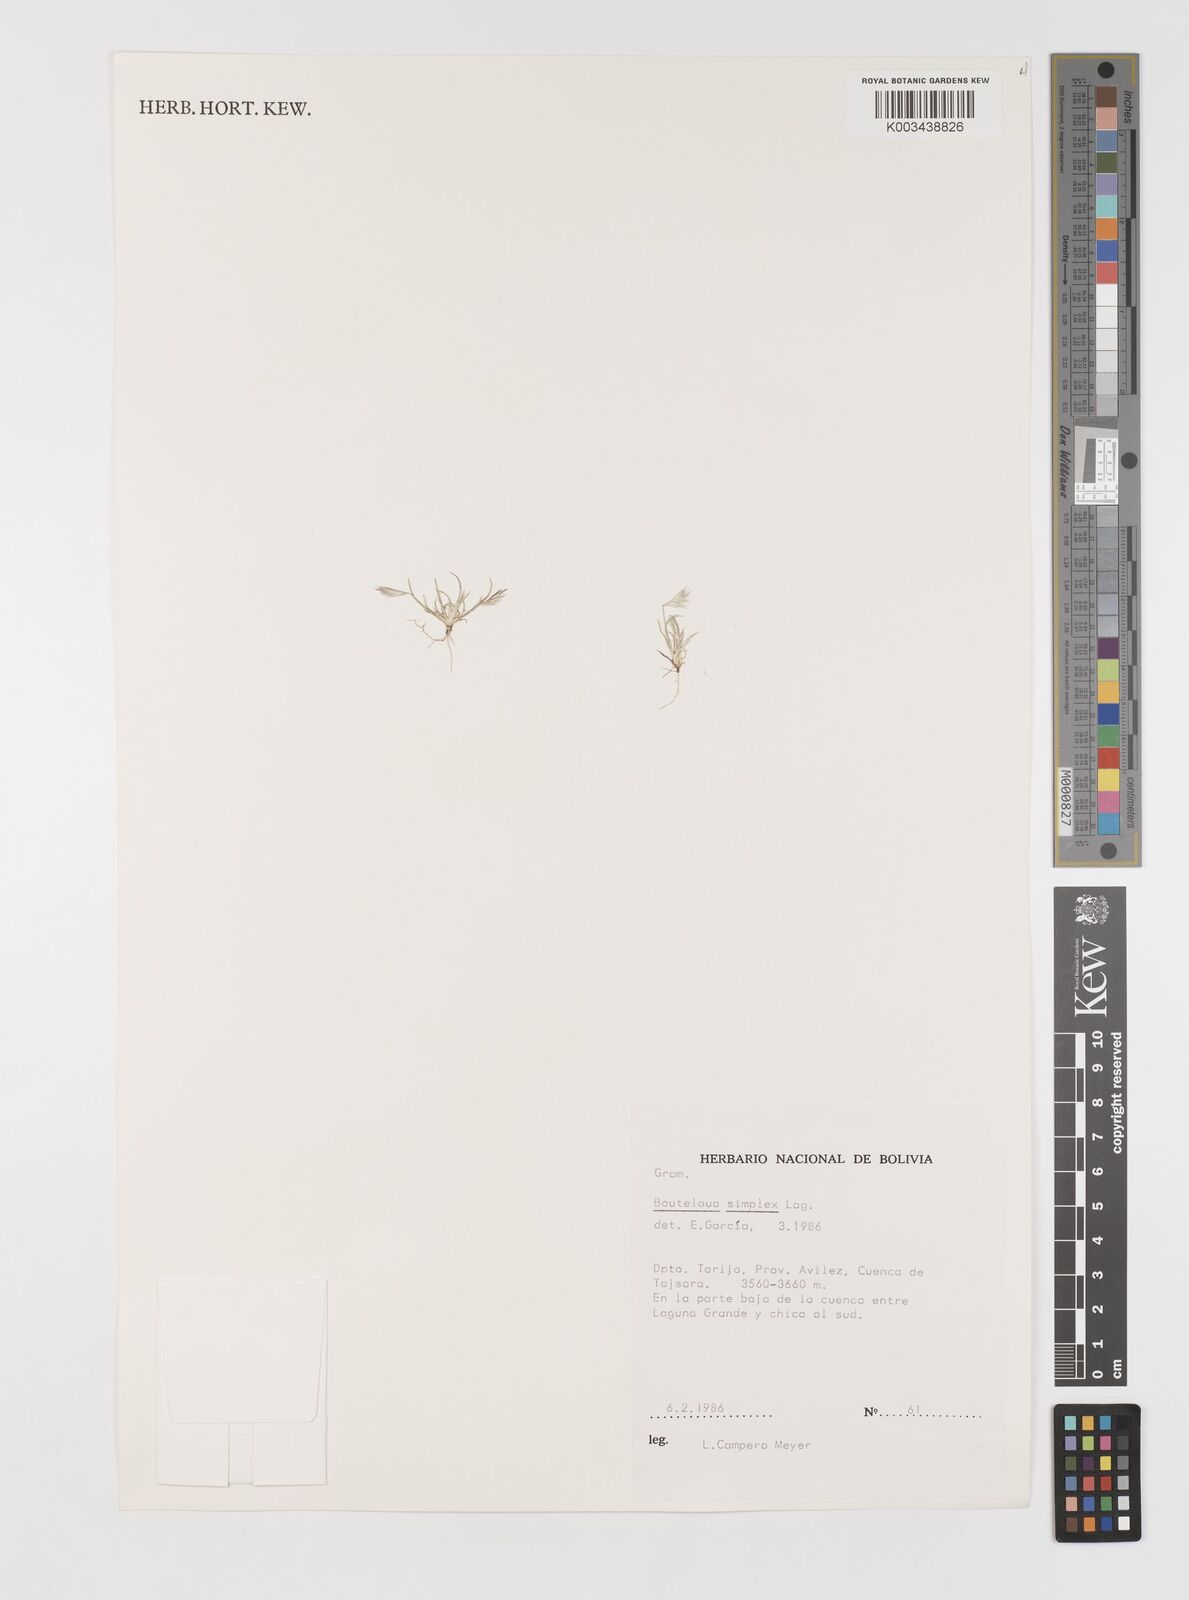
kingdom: Plantae
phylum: Tracheophyta
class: Liliopsida
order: Poales
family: Poaceae
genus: Bouteloua
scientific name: Bouteloua simplex
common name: Mat grama
